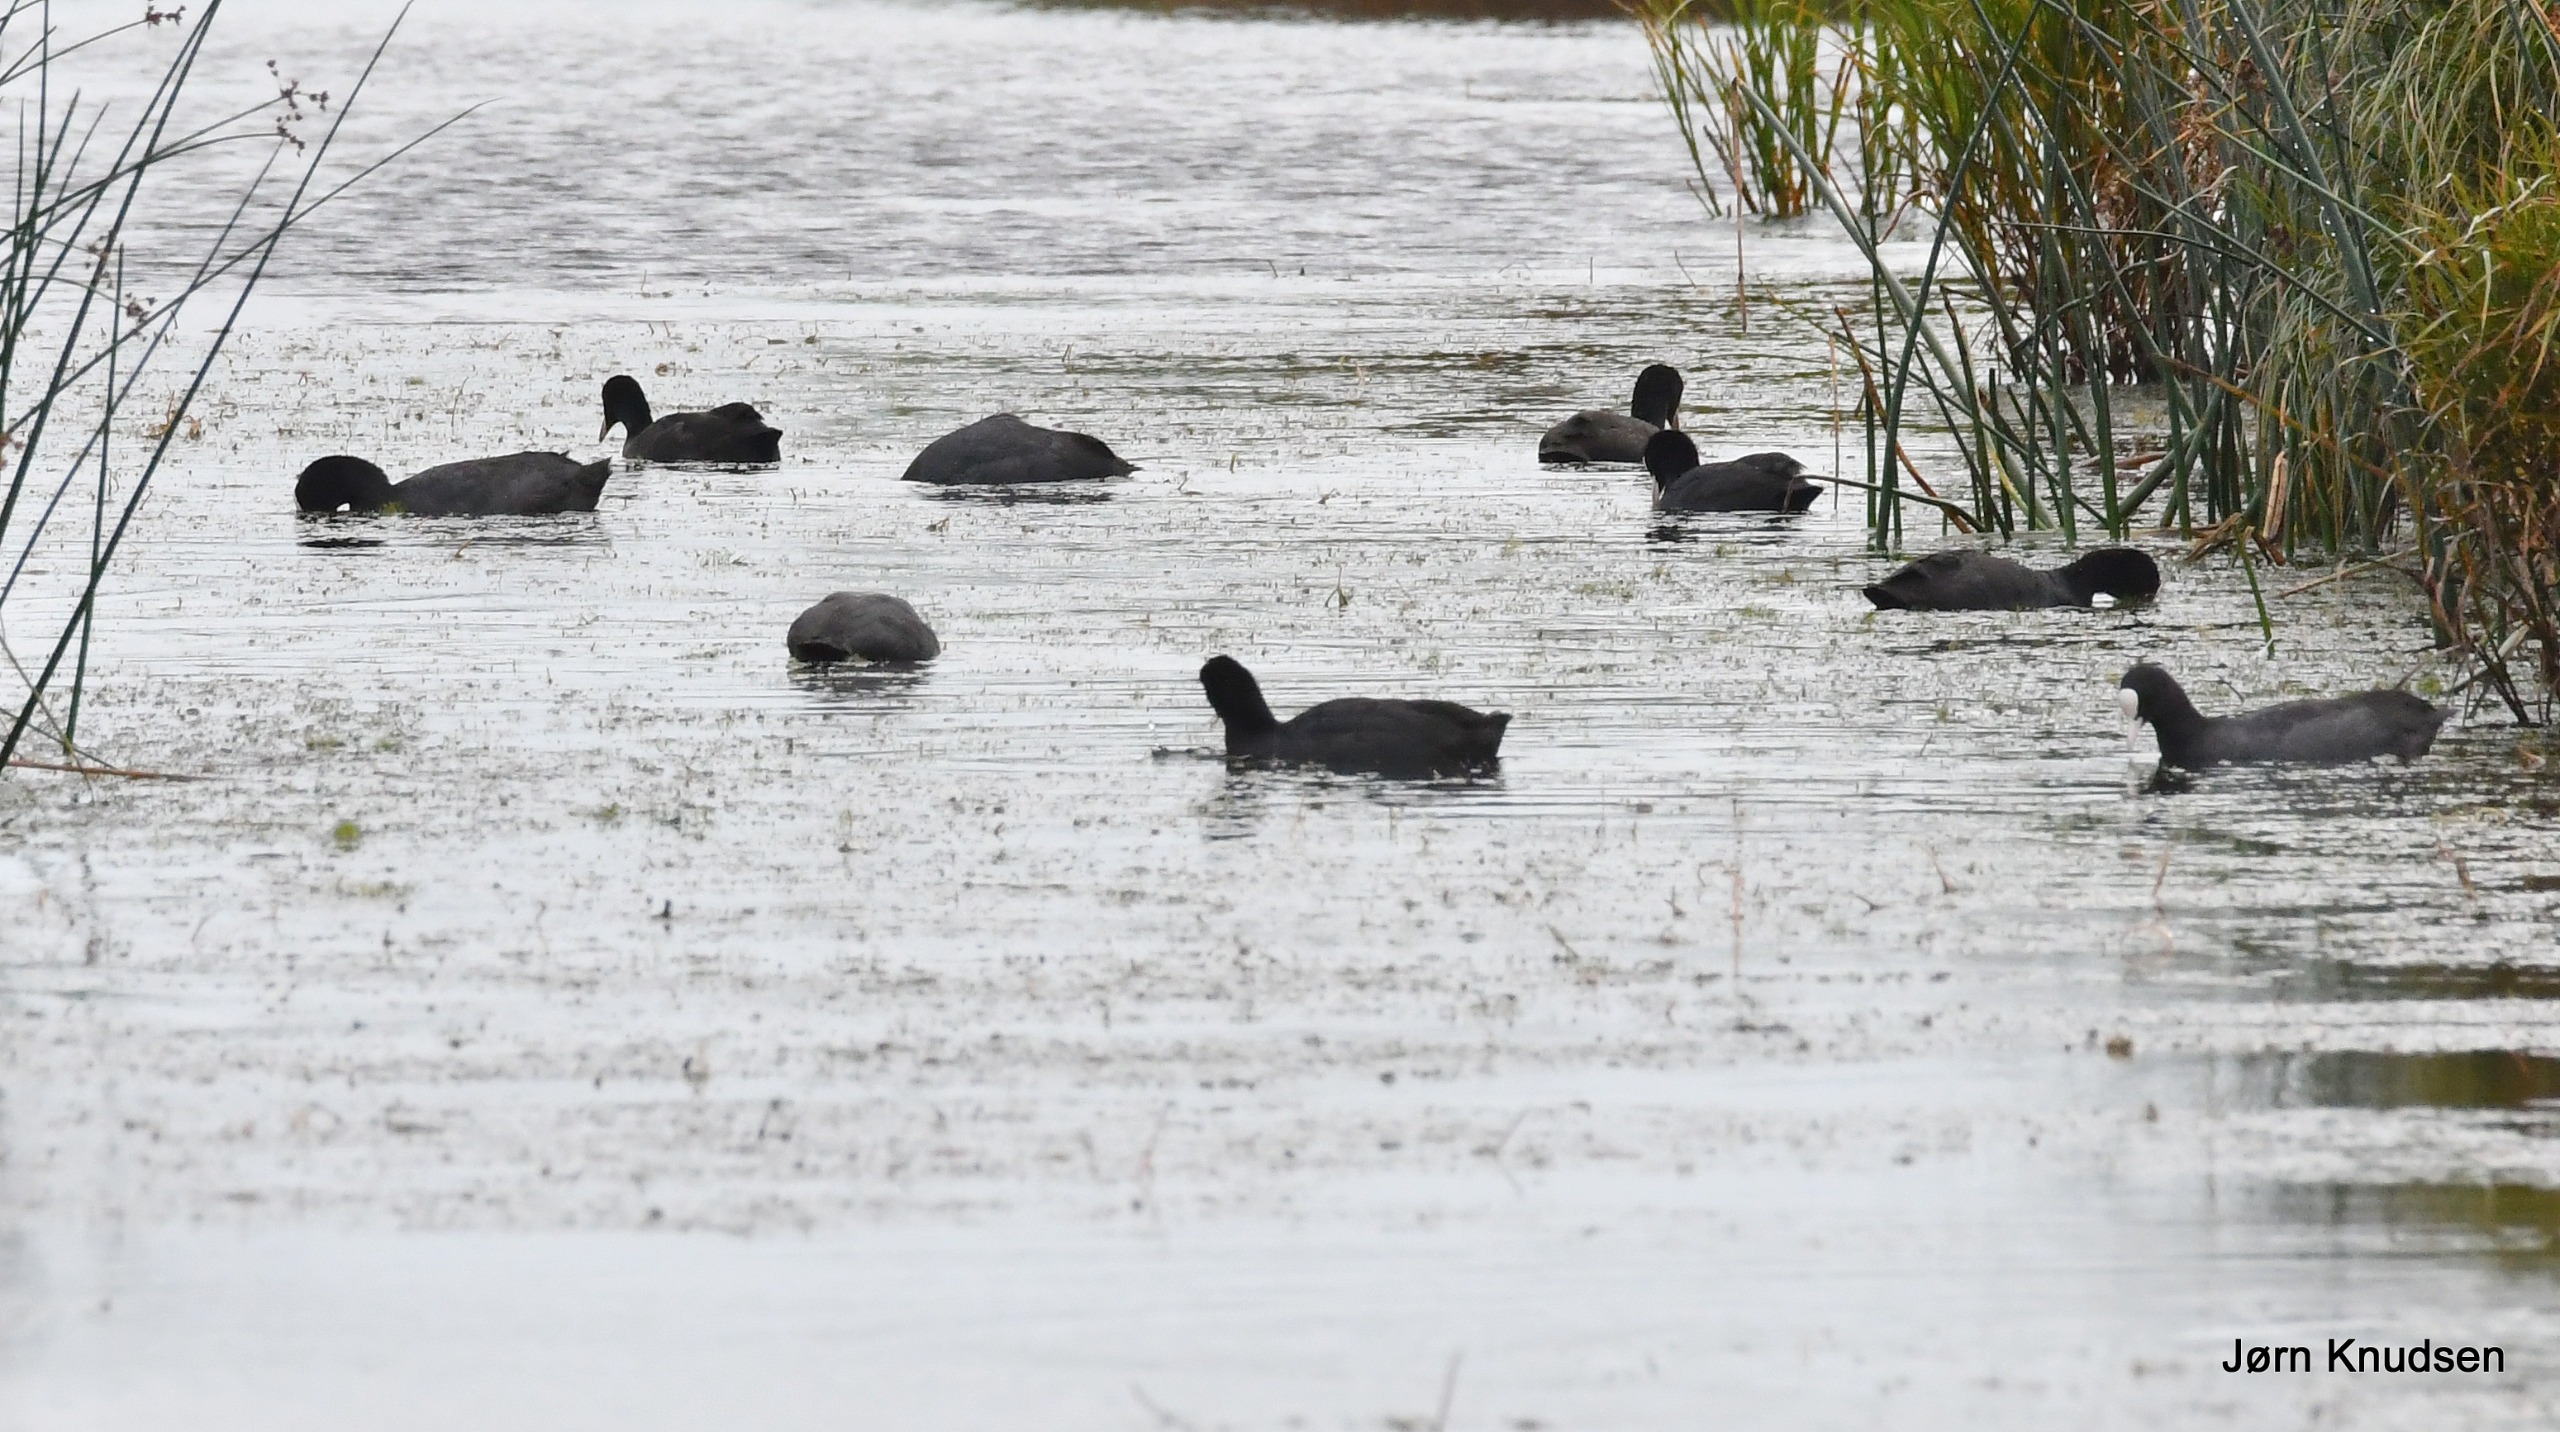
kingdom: Animalia
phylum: Chordata
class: Aves
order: Gruiformes
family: Rallidae
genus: Fulica
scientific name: Fulica atra
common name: Blishøne
